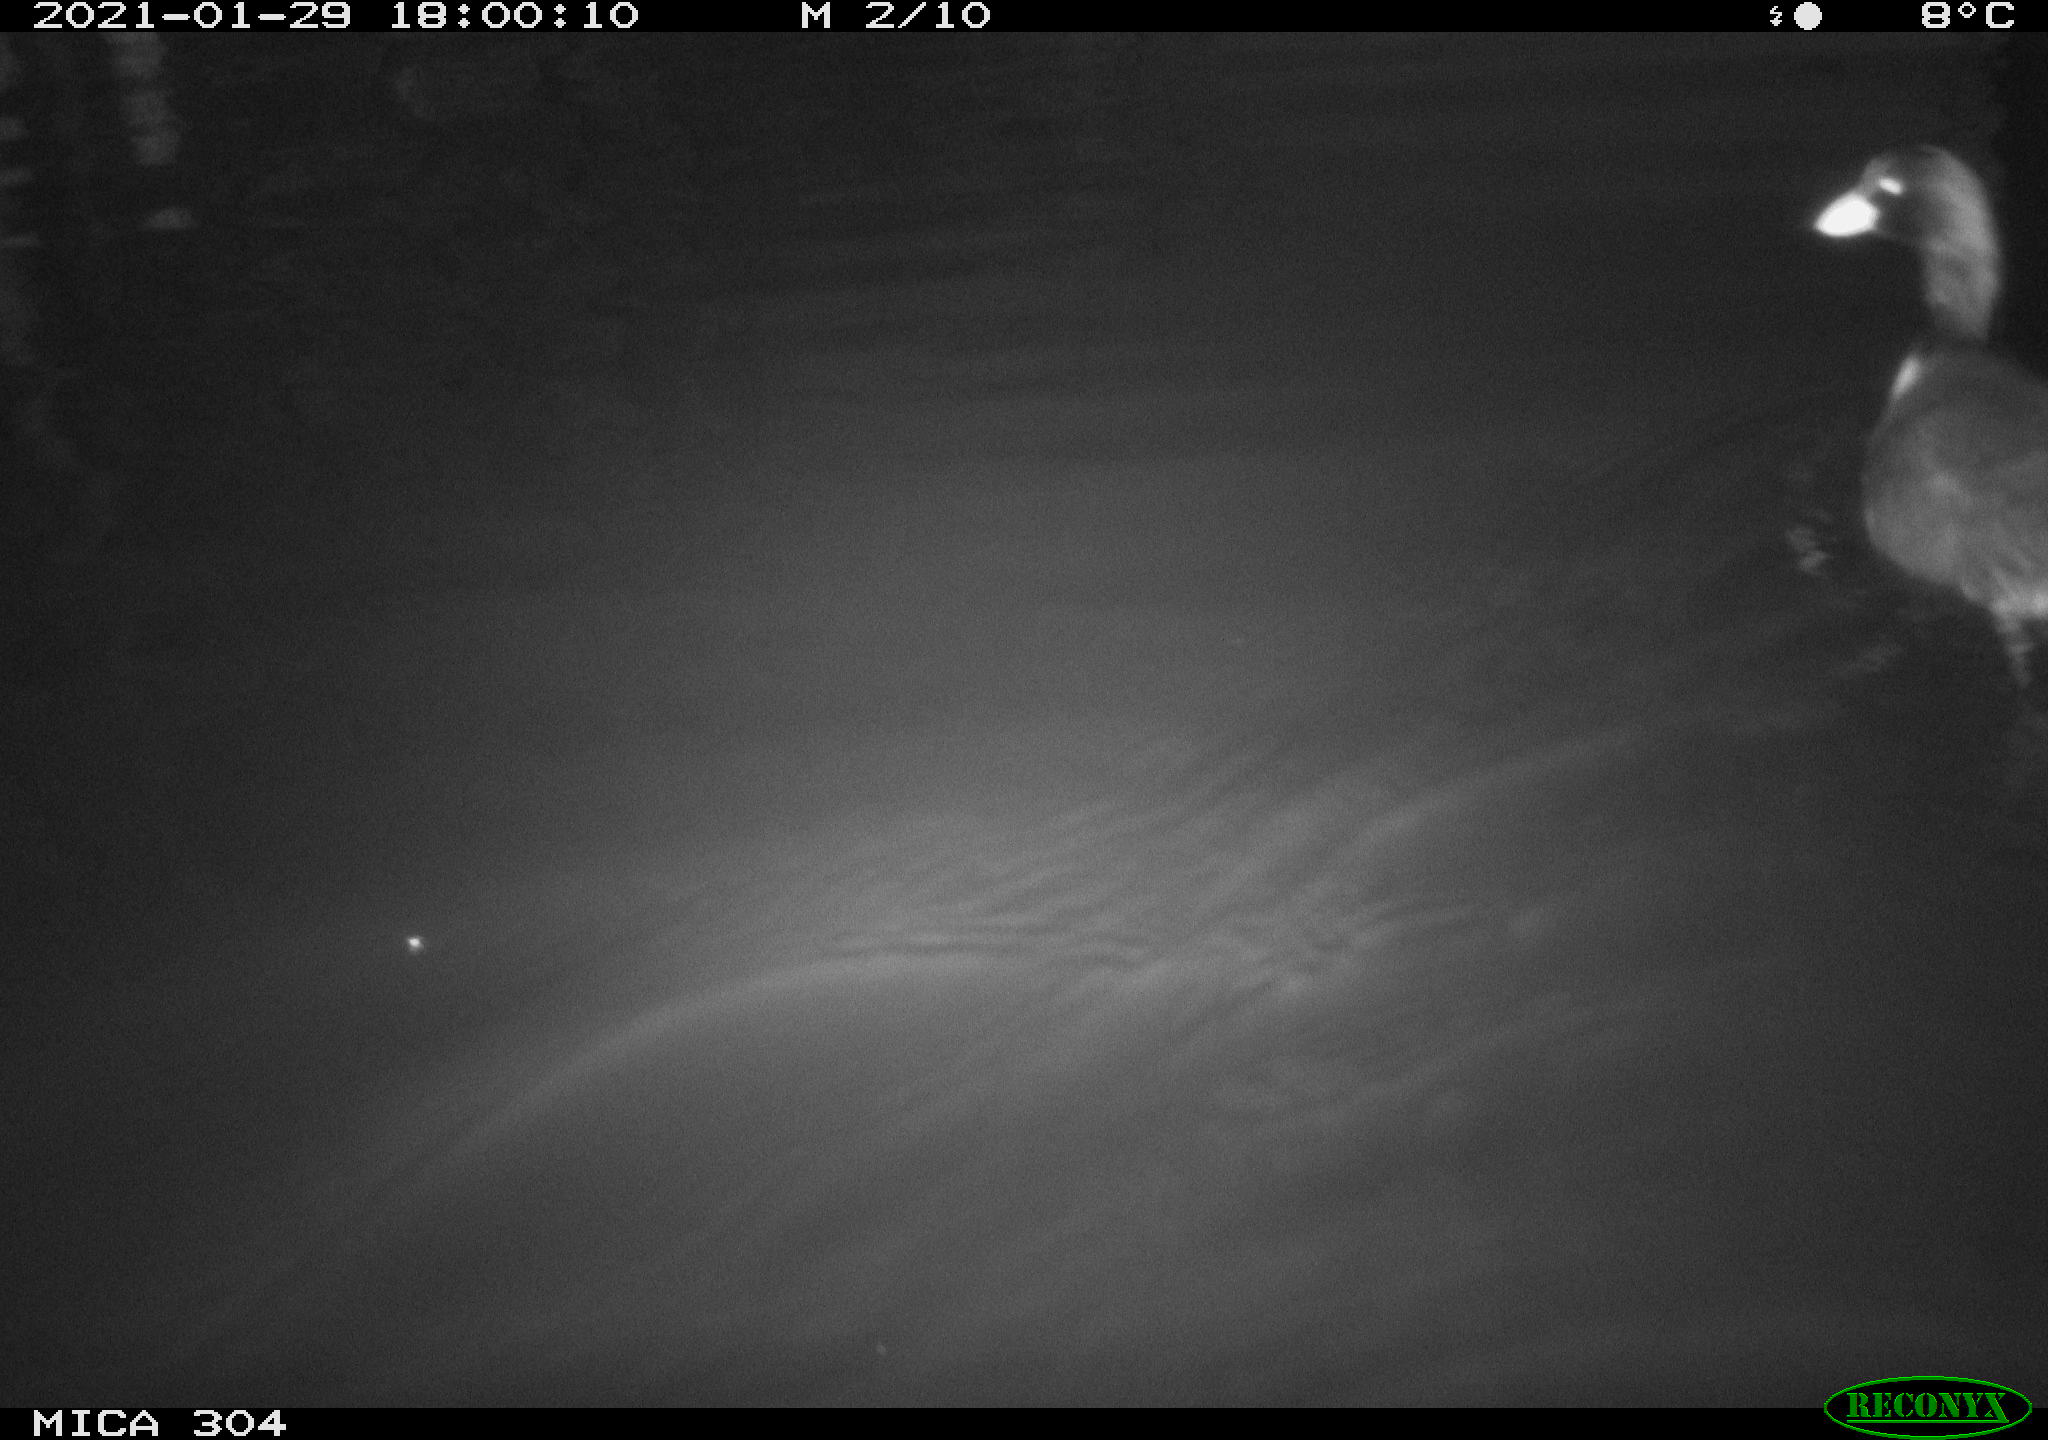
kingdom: Animalia
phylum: Chordata
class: Aves
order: Gruiformes
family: Rallidae
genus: Fulica
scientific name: Fulica atra
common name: Eurasian coot
